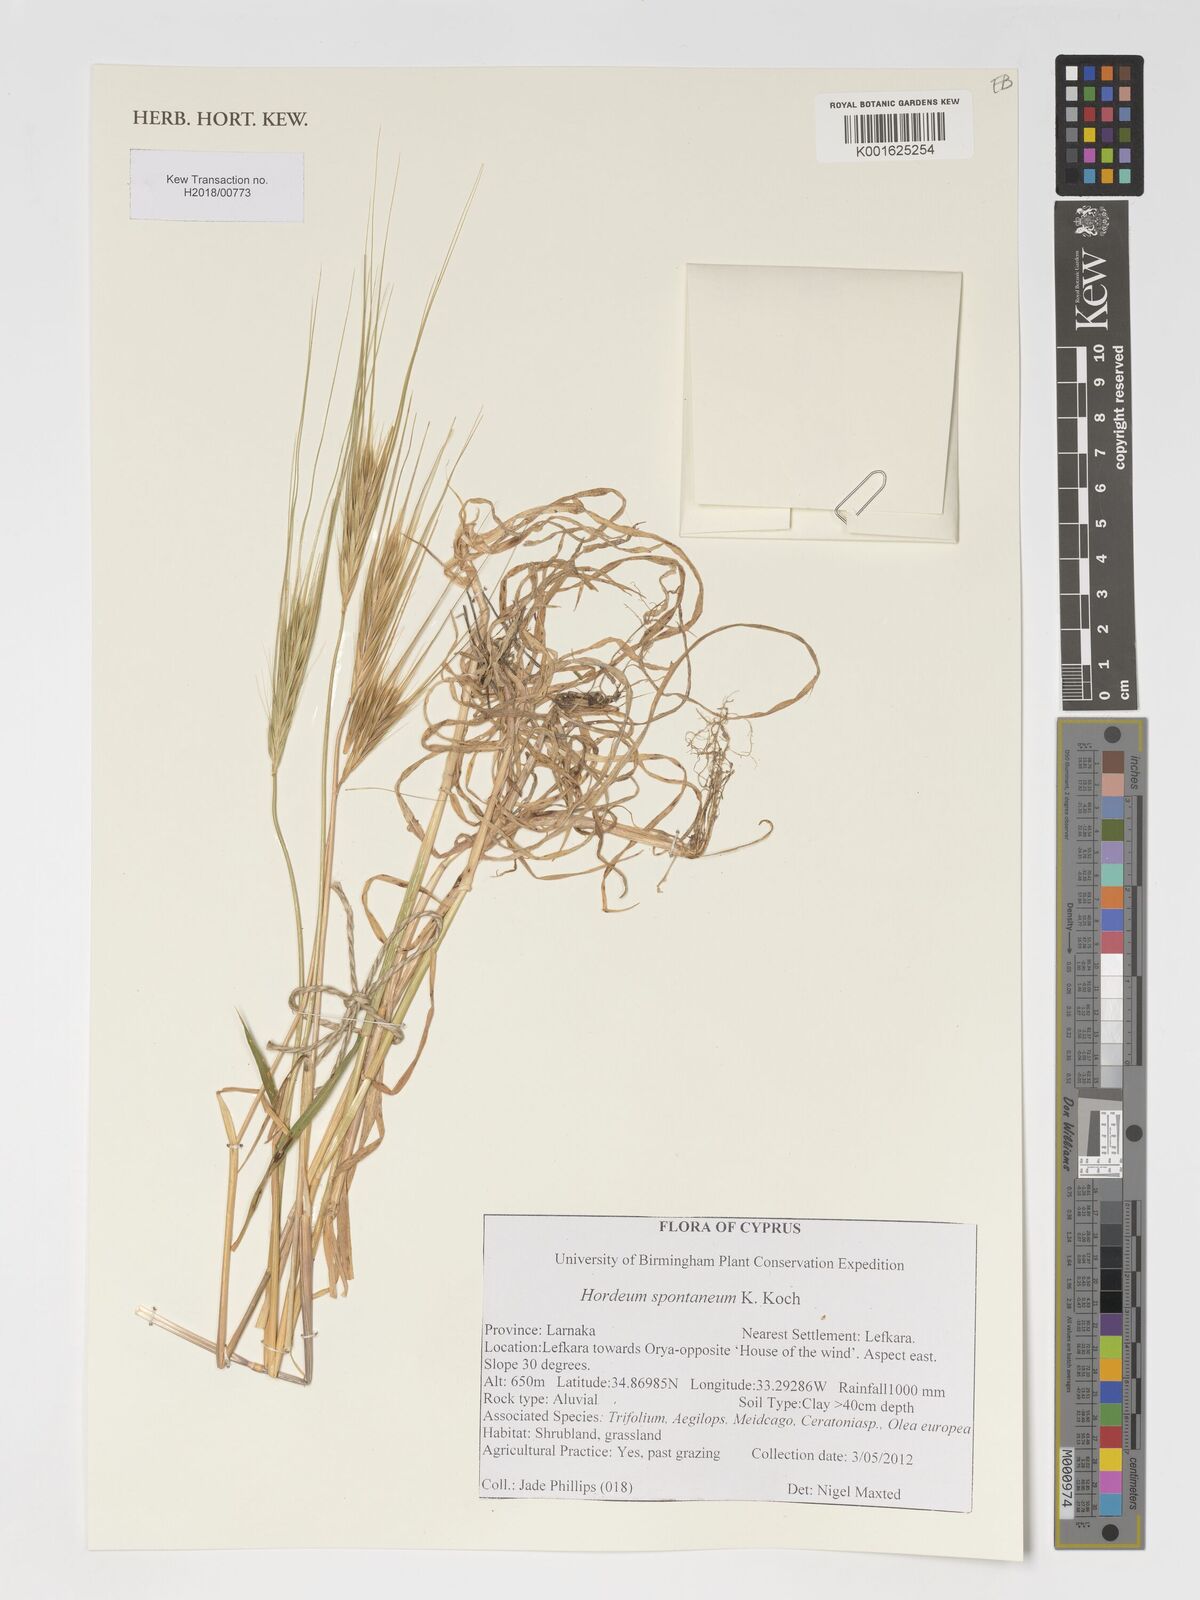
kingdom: Plantae
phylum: Tracheophyta
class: Liliopsida
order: Poales
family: Poaceae
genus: Hordeum
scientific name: Hordeum spontaneum
